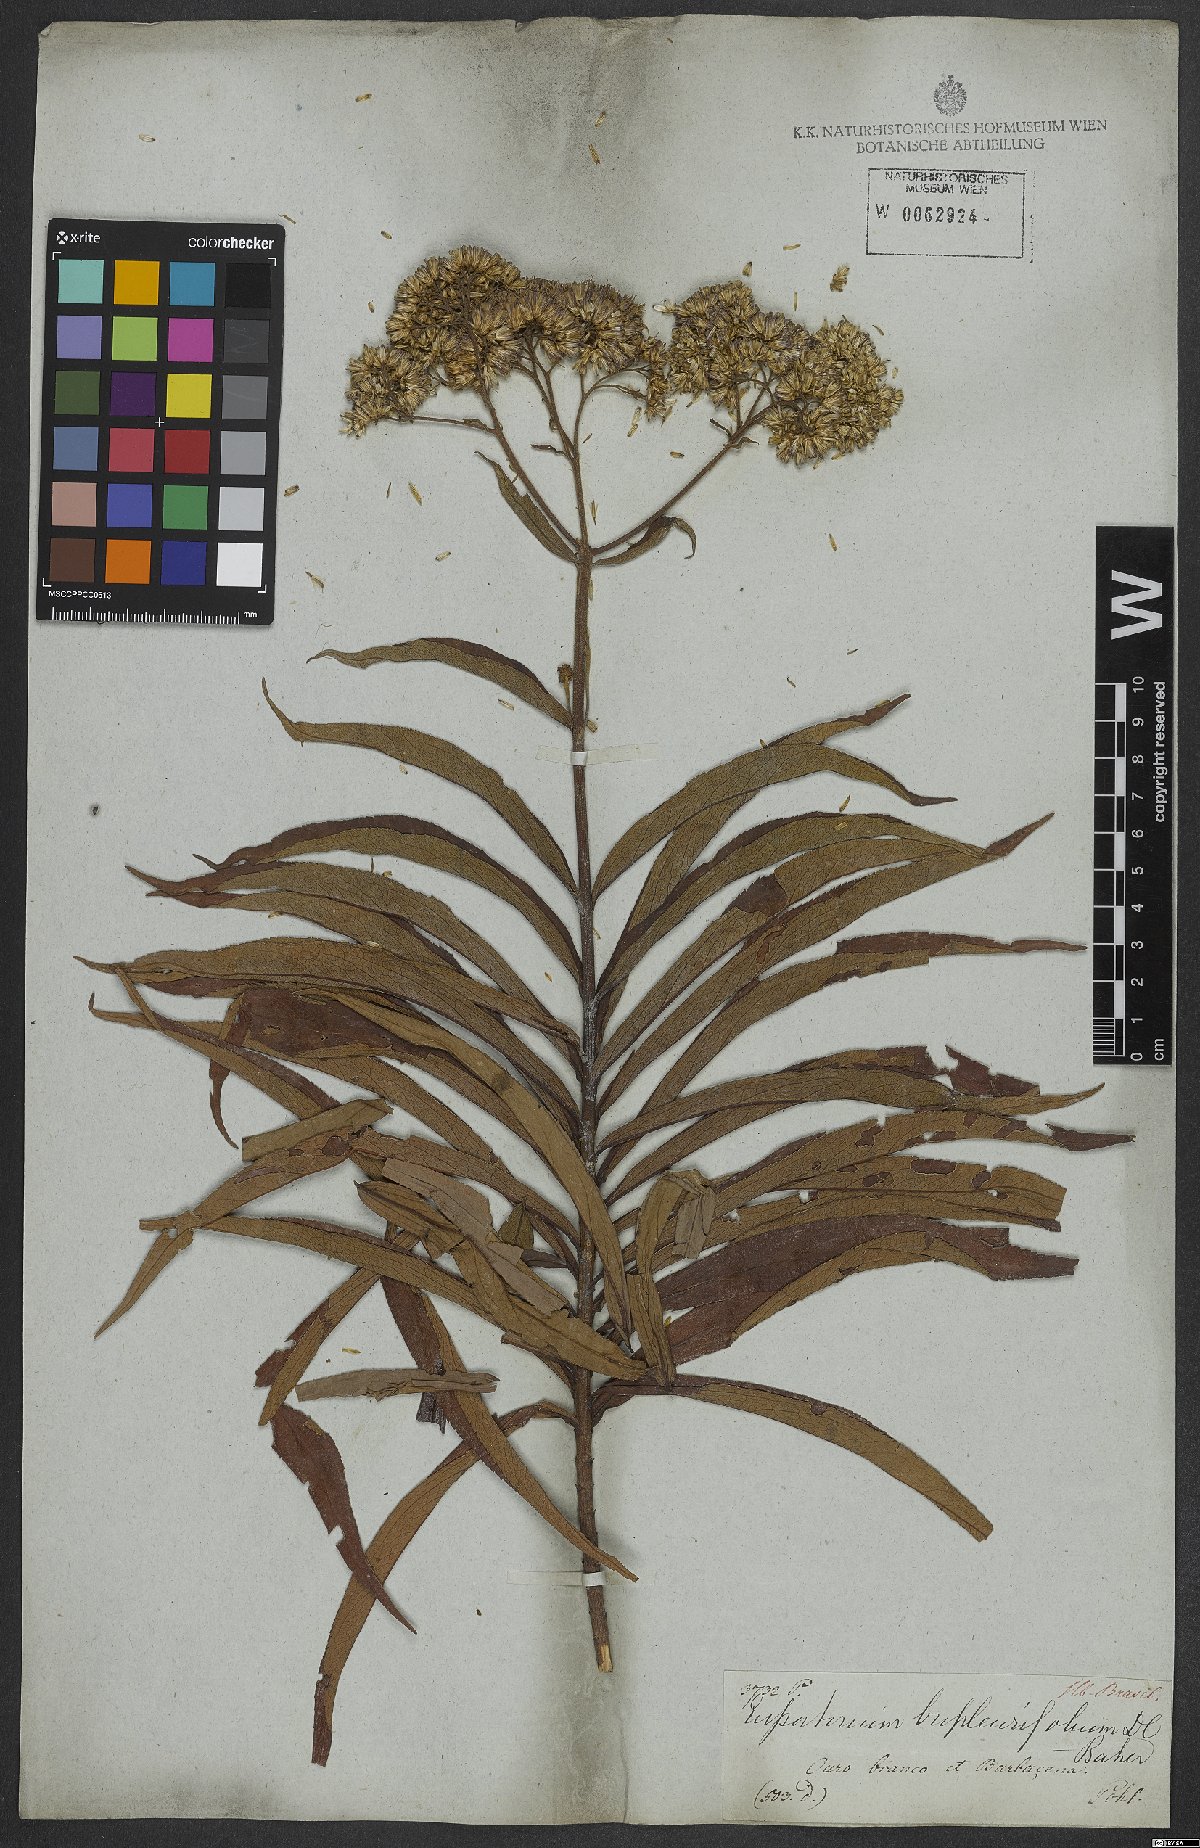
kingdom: Plantae
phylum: Tracheophyta
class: Magnoliopsida
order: Asterales
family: Asteraceae
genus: Campovassouria
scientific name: Campovassouria cruciata
